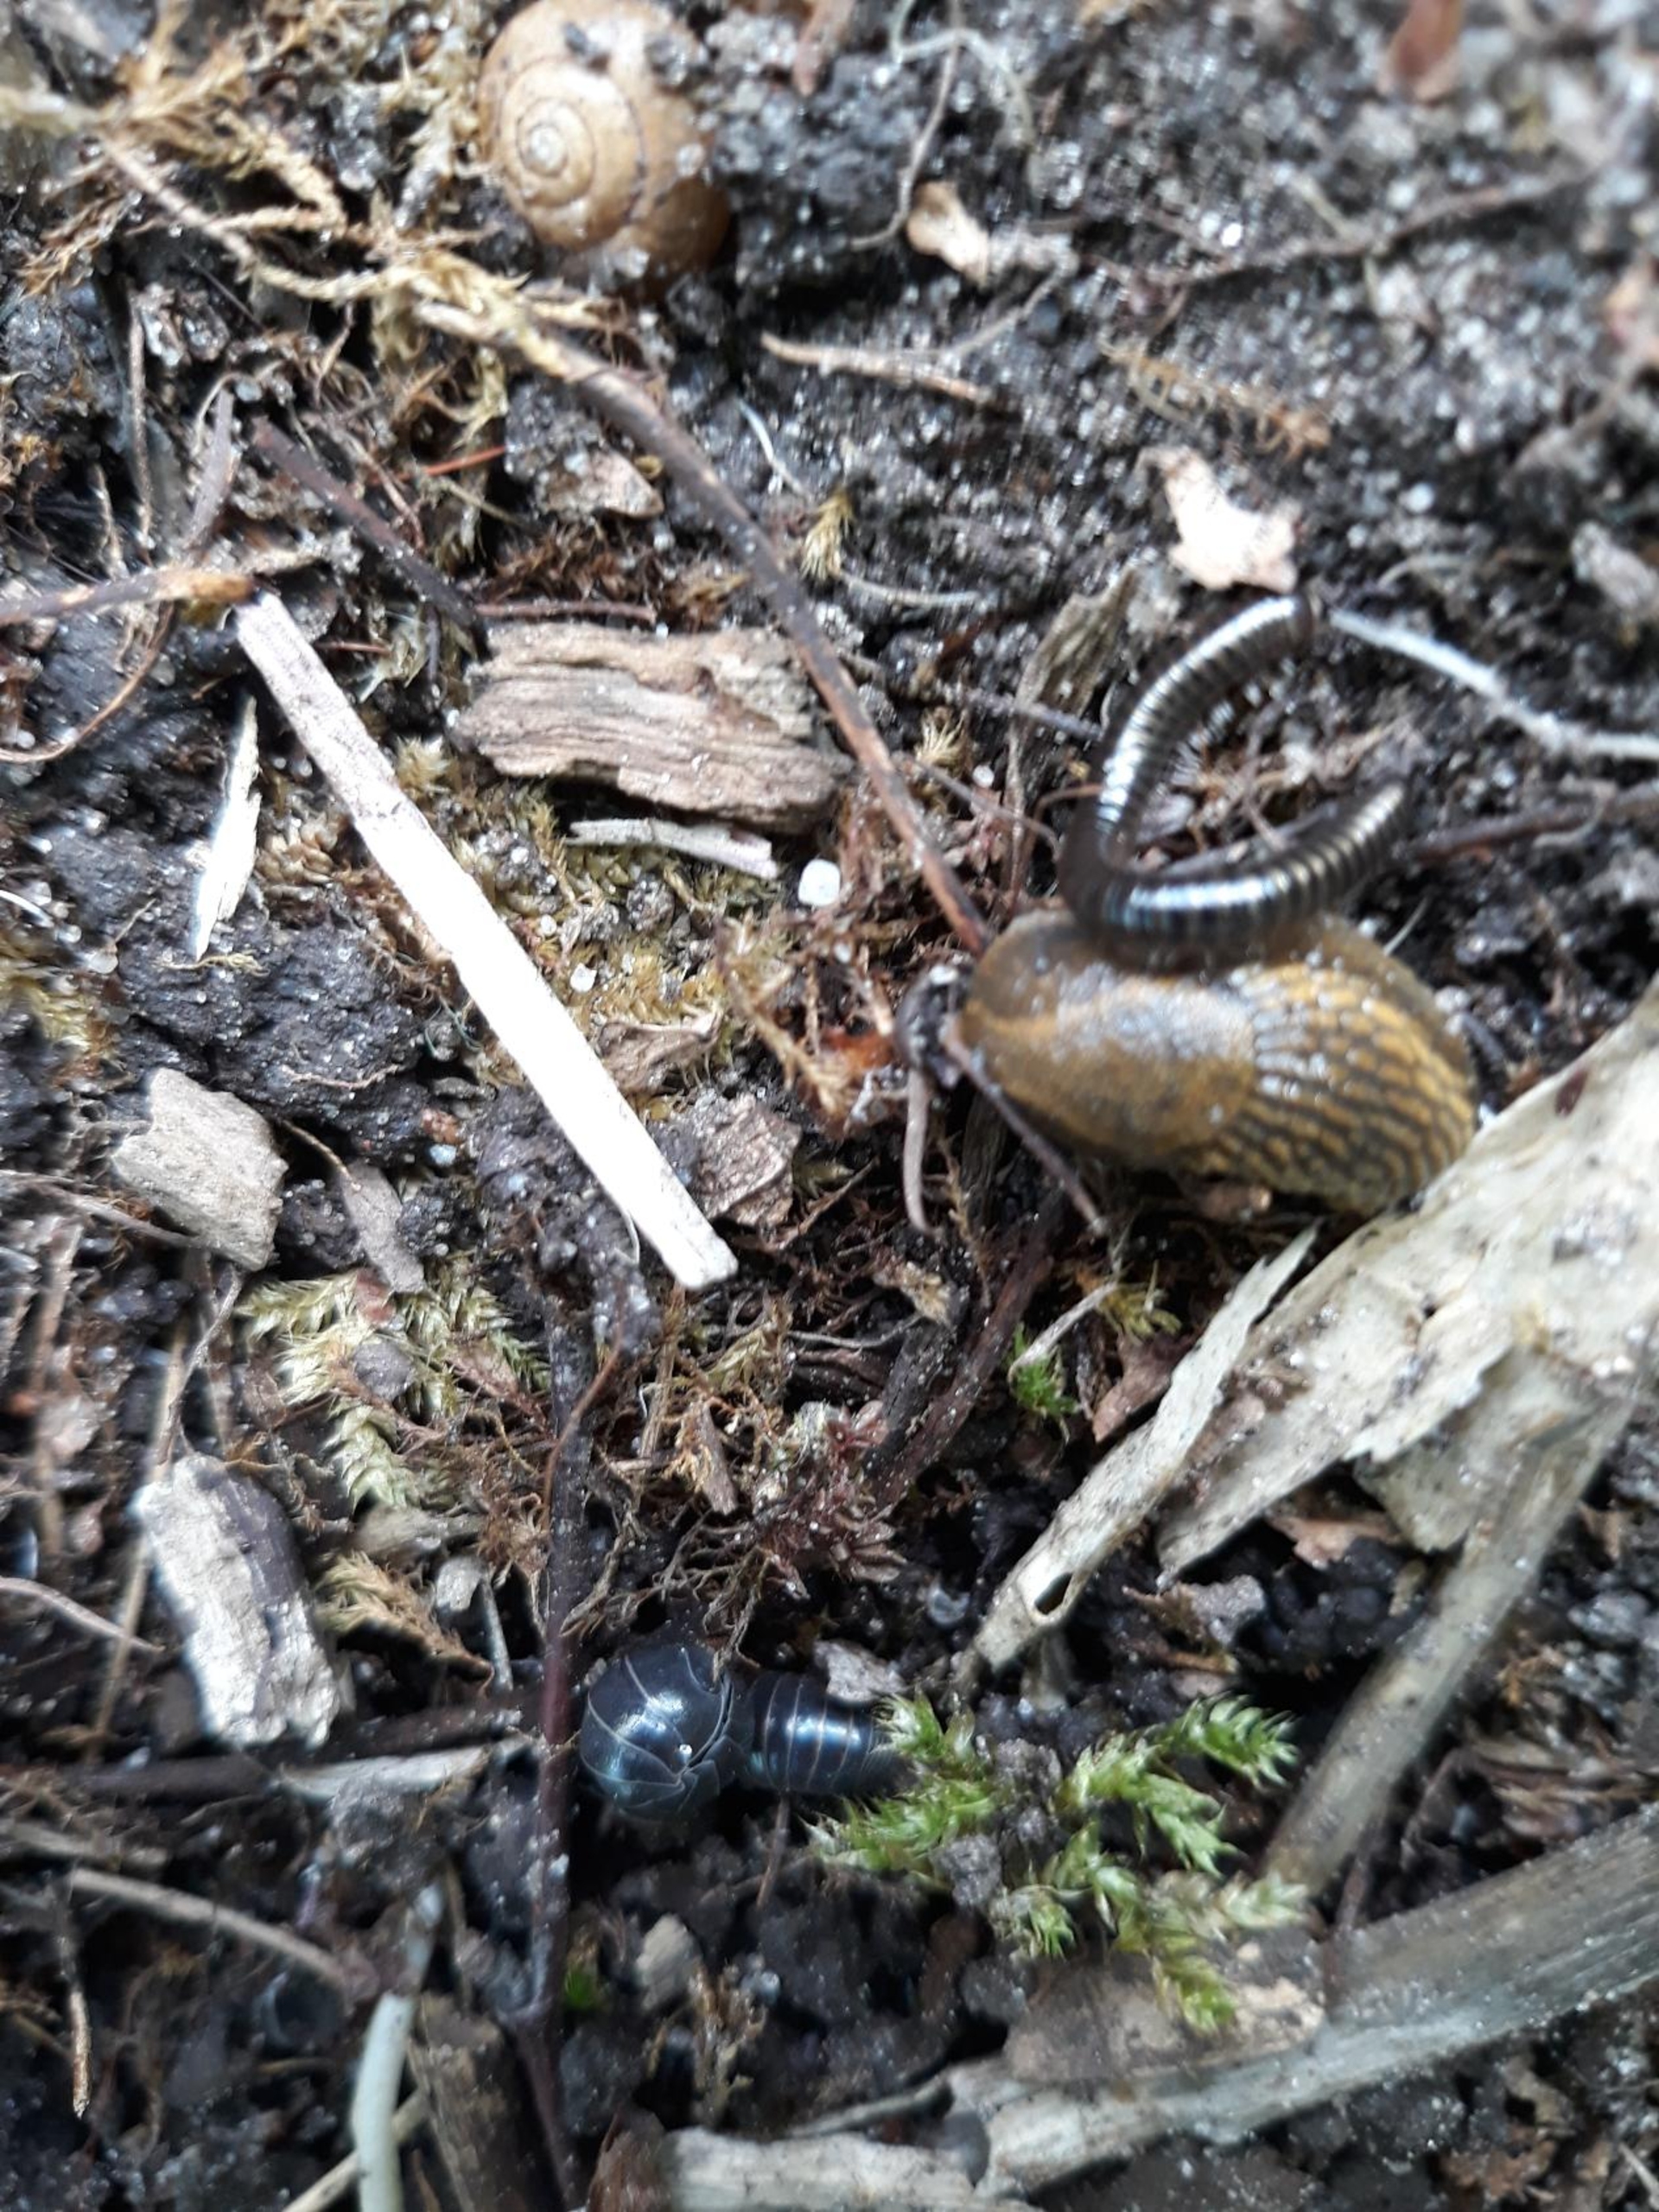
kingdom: Animalia
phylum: Arthropoda
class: Malacostraca
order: Isopoda
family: Armadillidiidae
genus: Armadillidium
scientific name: Armadillidium vulgare
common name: Almindelig kuglebænkebider
